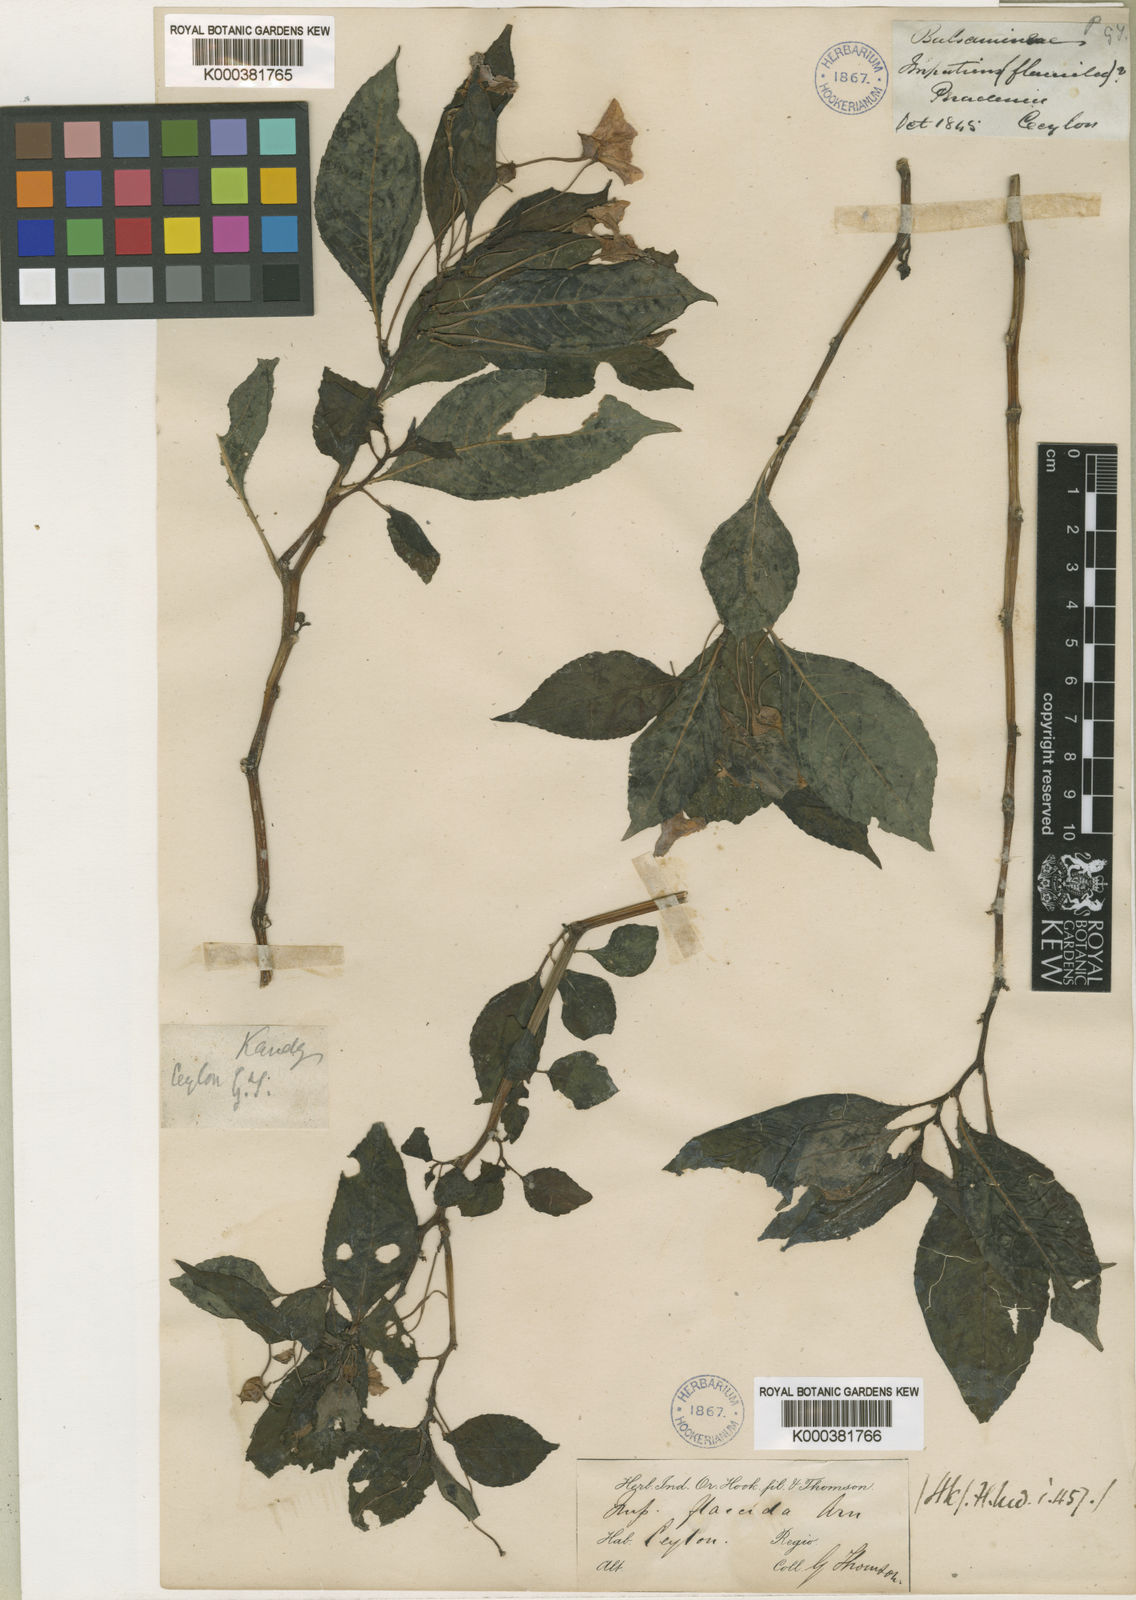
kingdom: Plantae
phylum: Tracheophyta
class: Magnoliopsida
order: Ericales
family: Balsaminaceae
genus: Impatiens
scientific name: Impatiens flaccida
